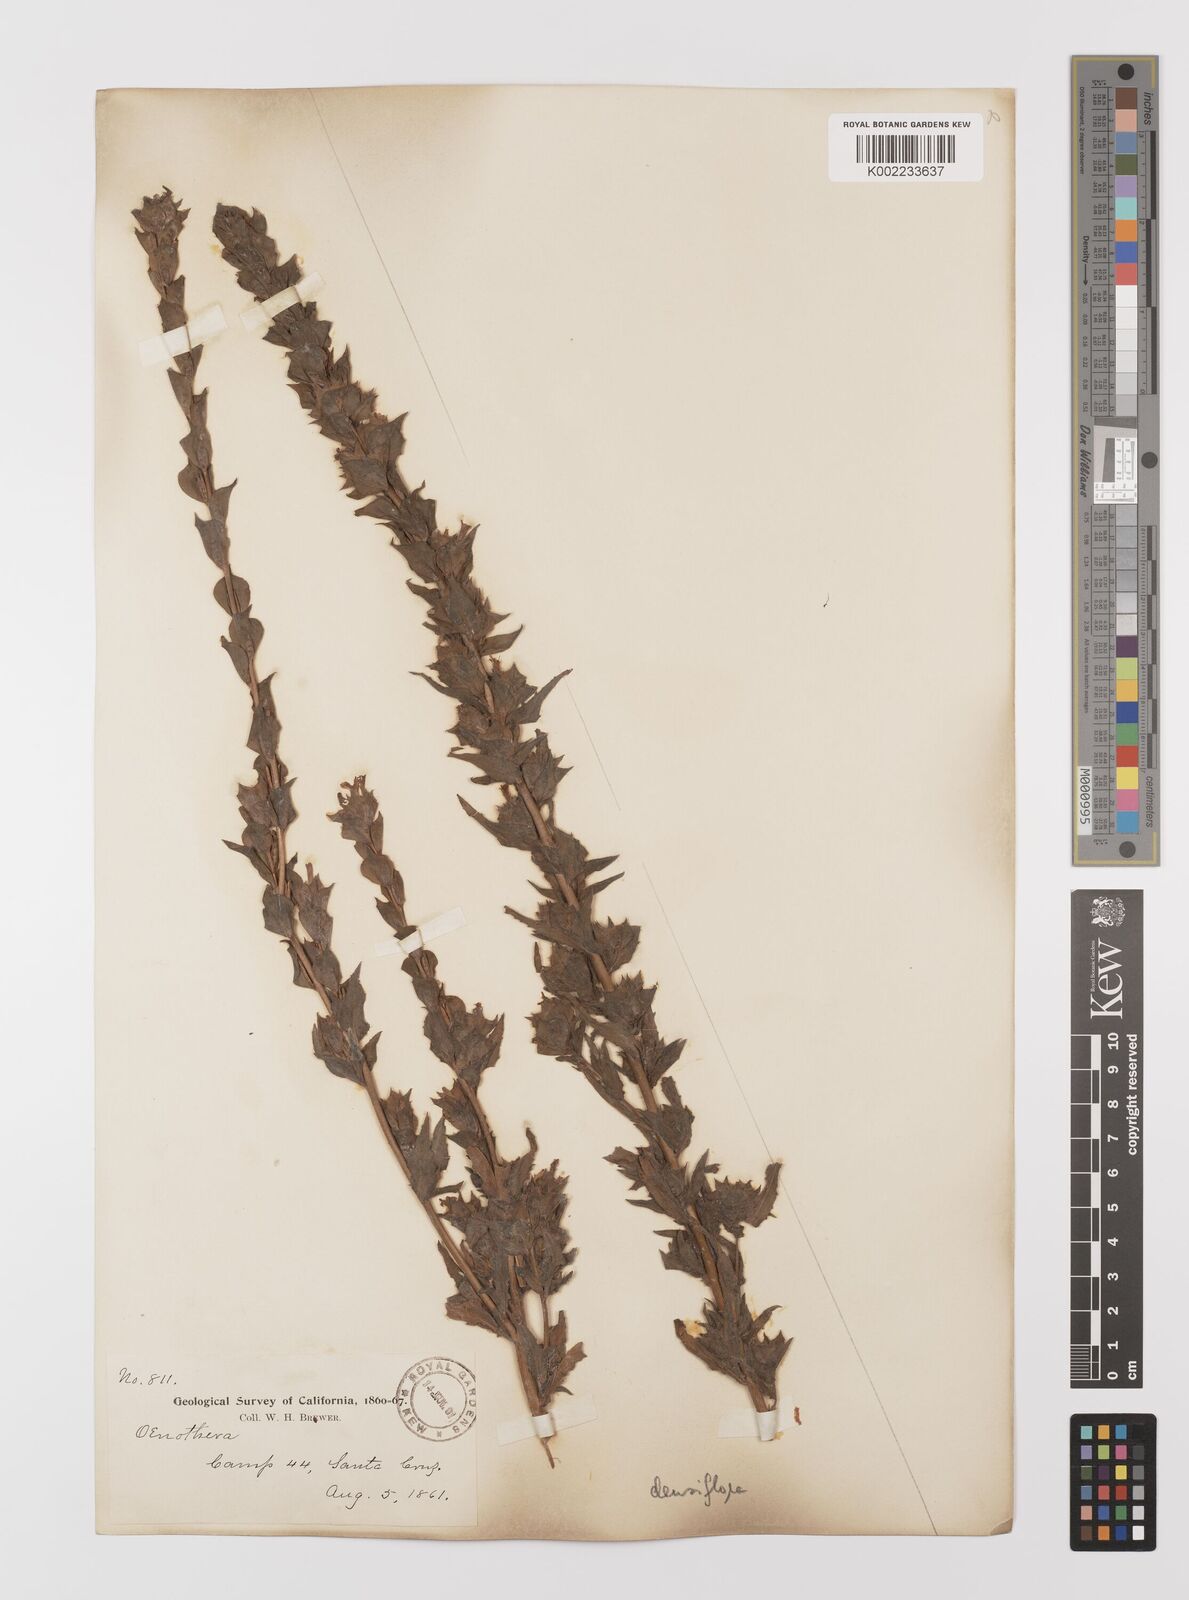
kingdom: Plantae
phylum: Tracheophyta
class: Magnoliopsida
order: Myrtales
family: Onagraceae
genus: Epilobium
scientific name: Epilobium densiflorum
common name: Dense spike-primrose
